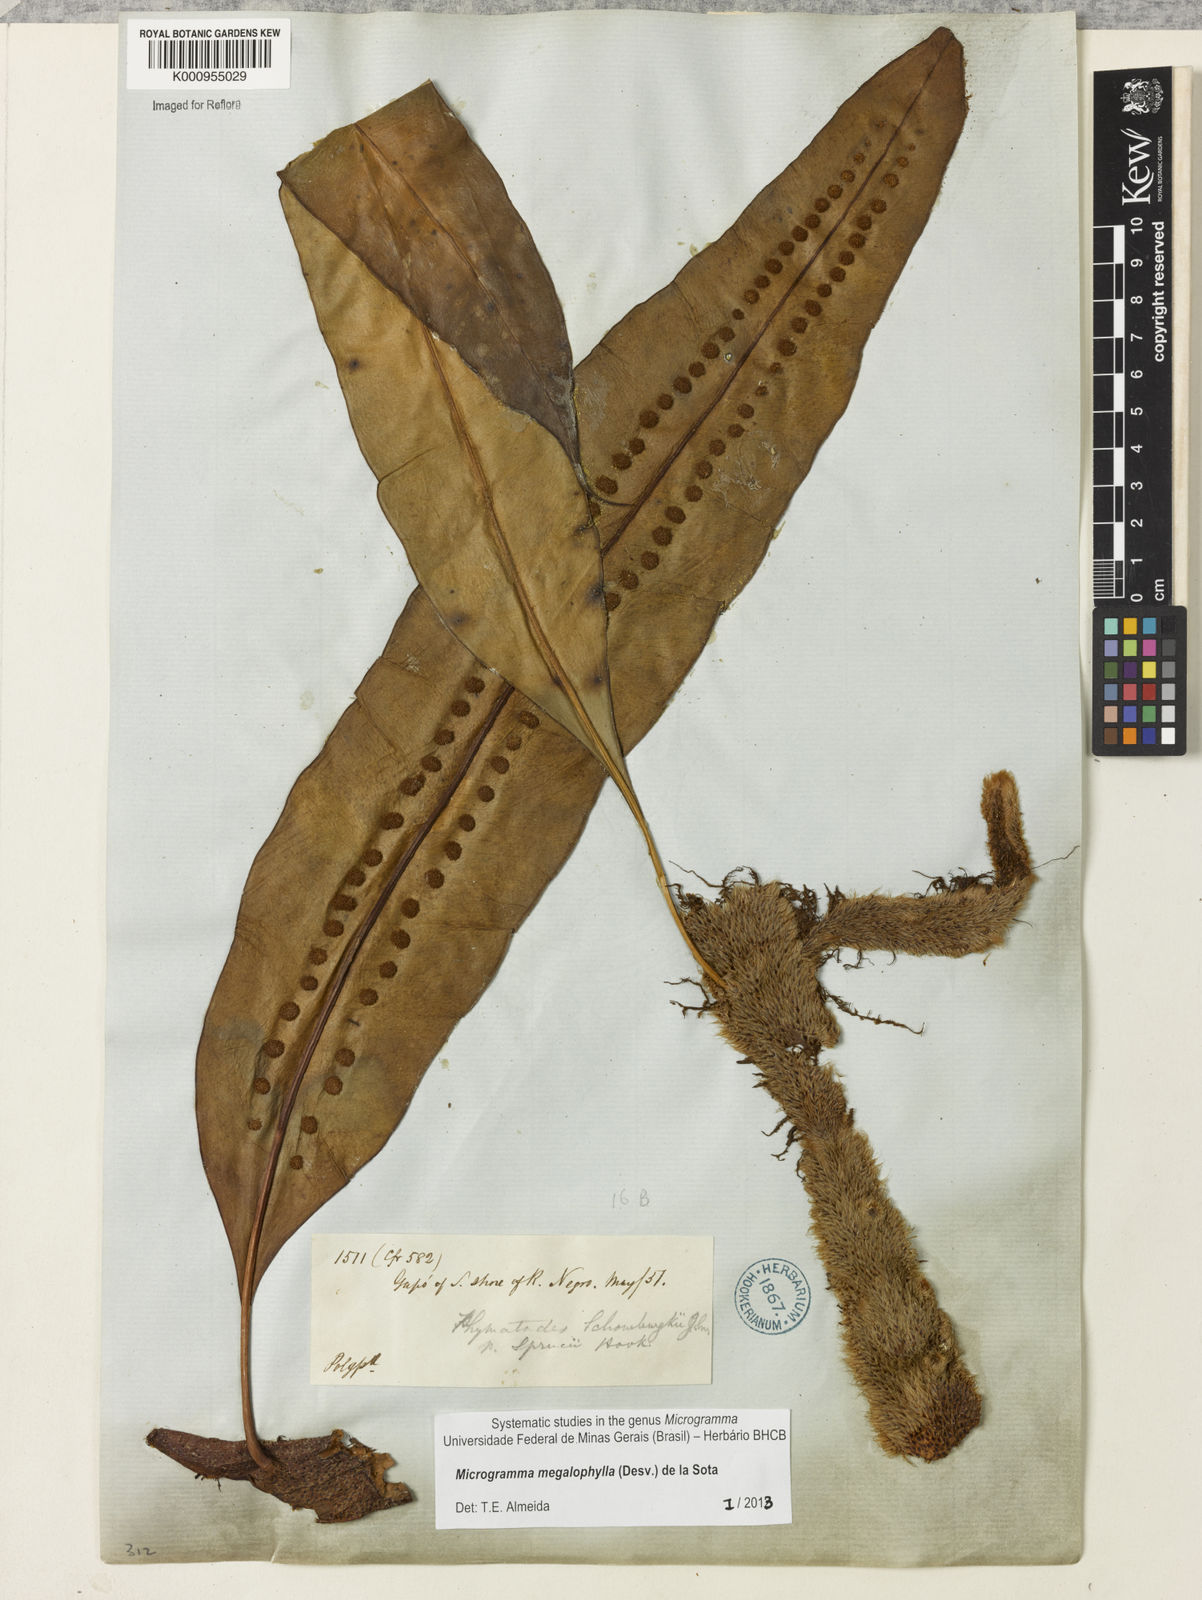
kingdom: Plantae
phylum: Tracheophyta
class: Polypodiopsida
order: Polypodiales
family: Polypodiaceae
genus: Microgramma
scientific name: Microgramma megalophylla
